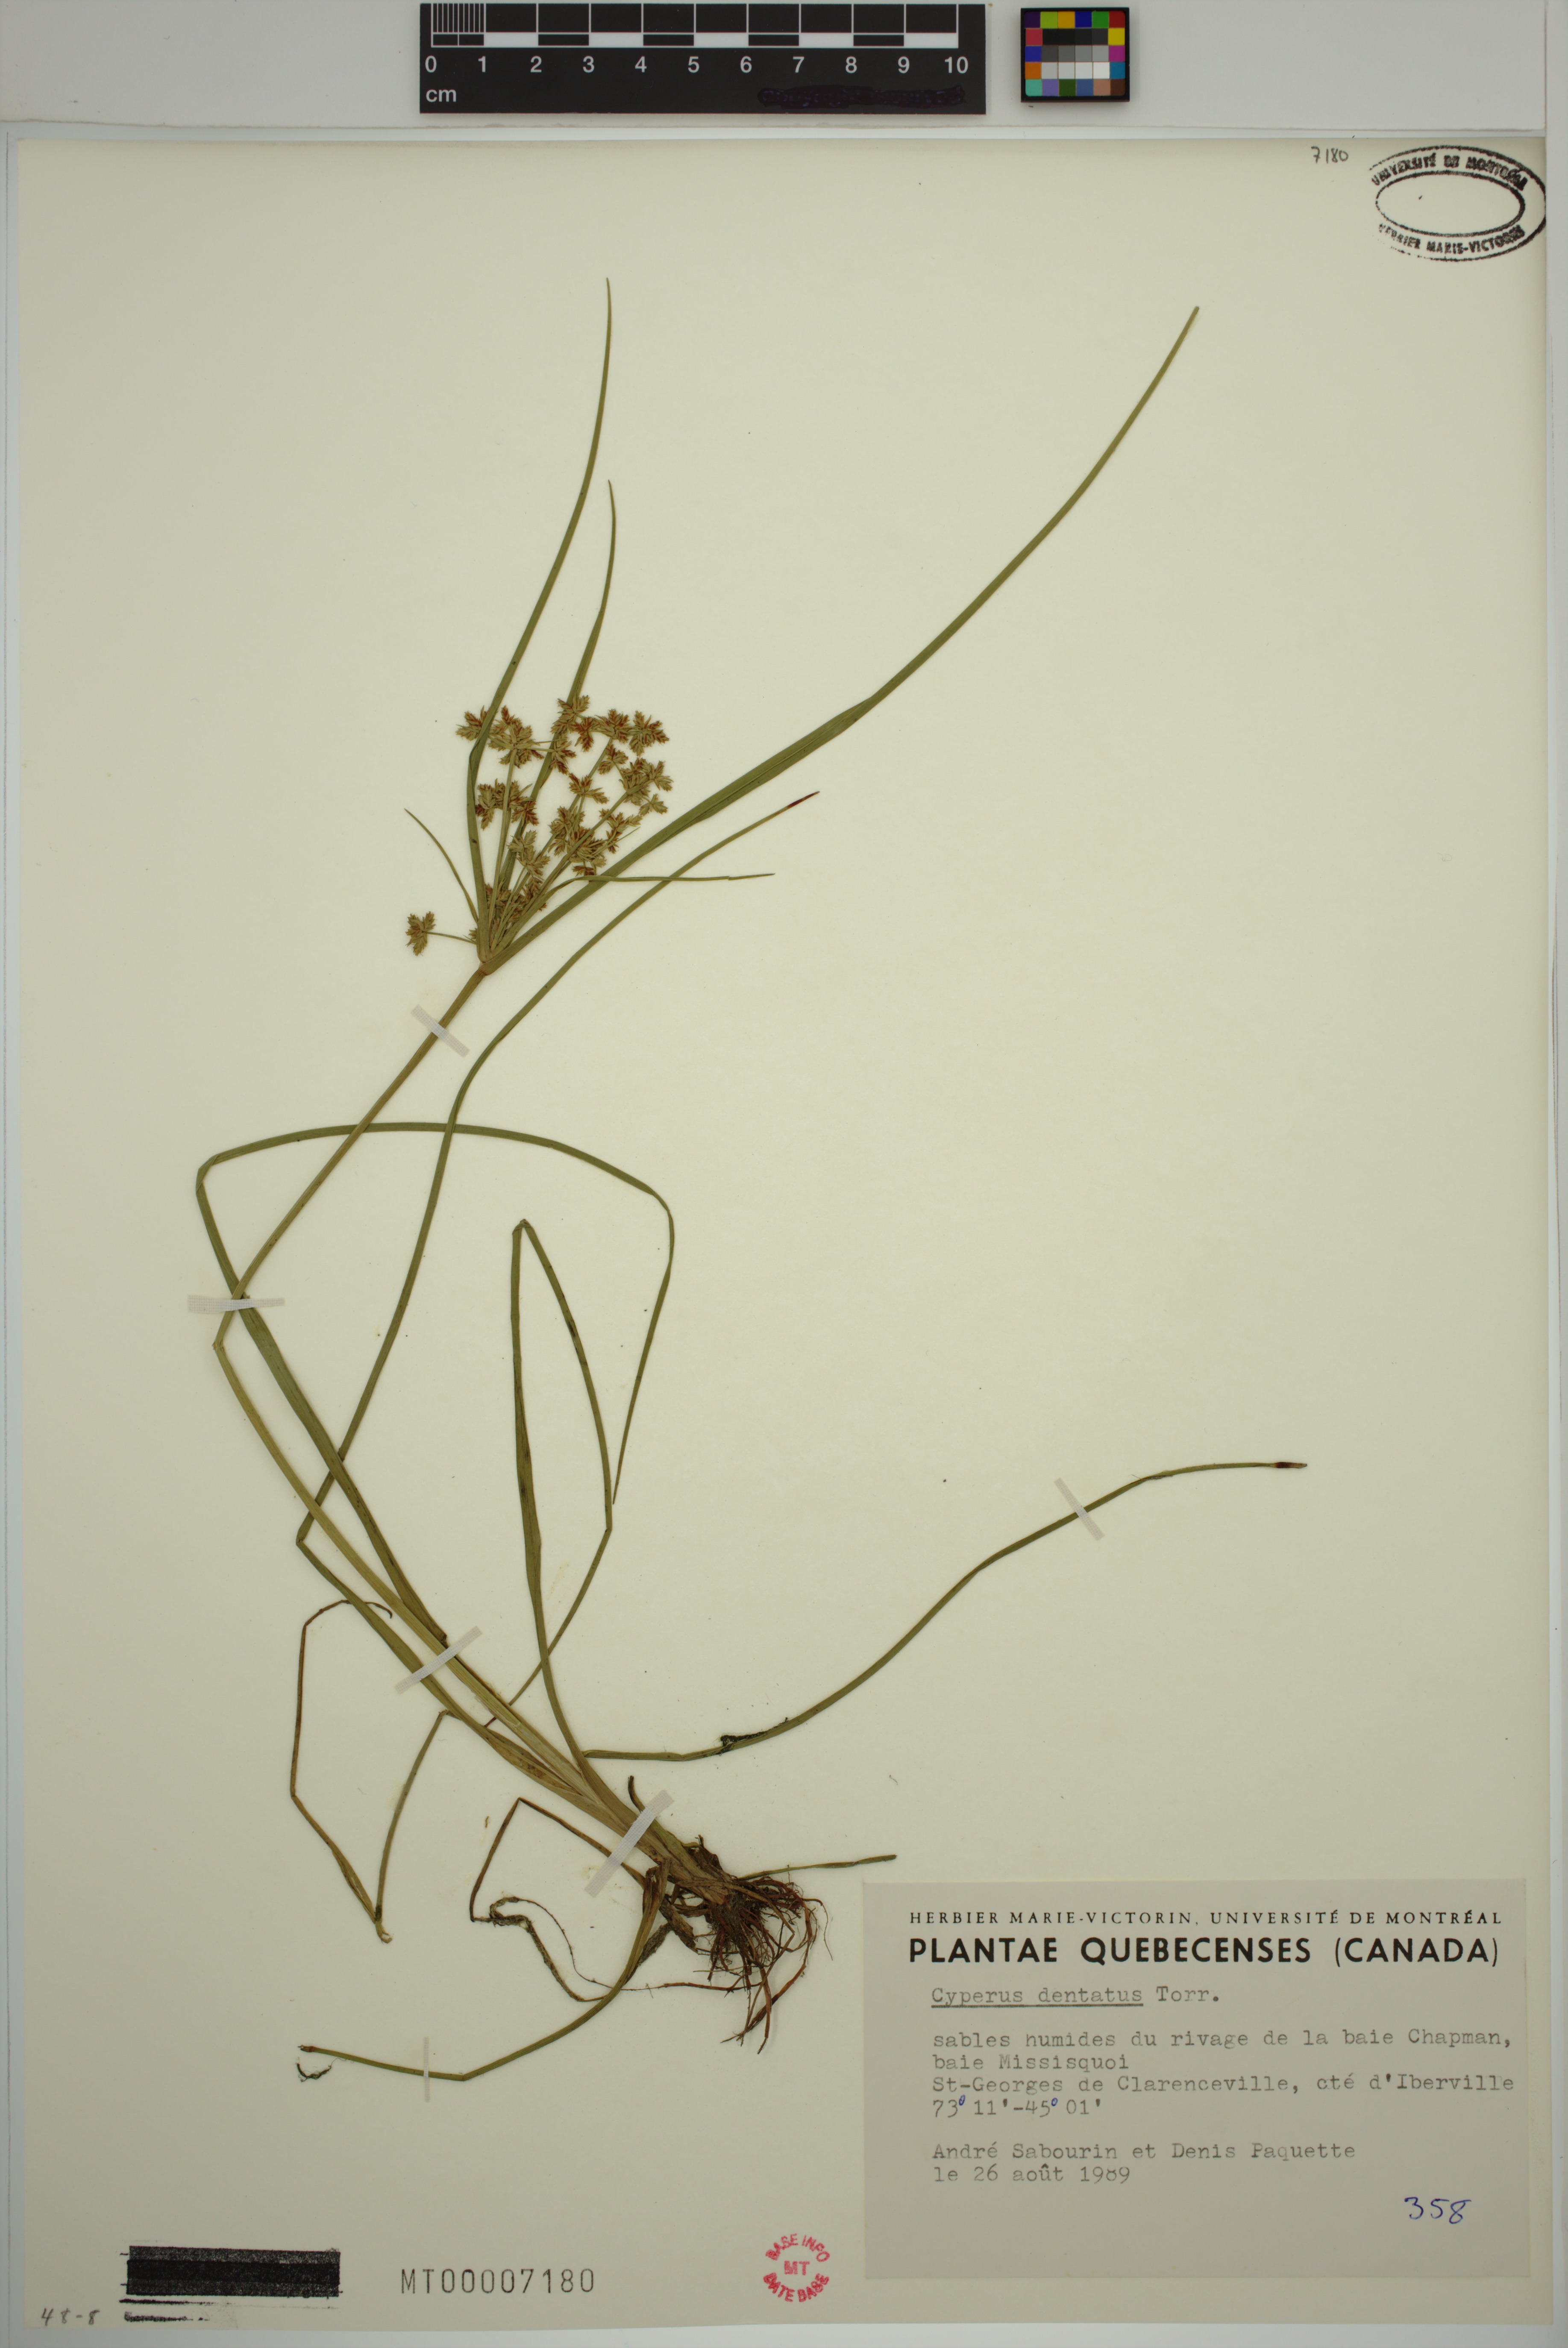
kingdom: Plantae
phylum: Tracheophyta
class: Liliopsida
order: Poales
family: Cyperaceae
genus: Cyperus
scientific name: Cyperus dentatus
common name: Dentate umbrella sedge
